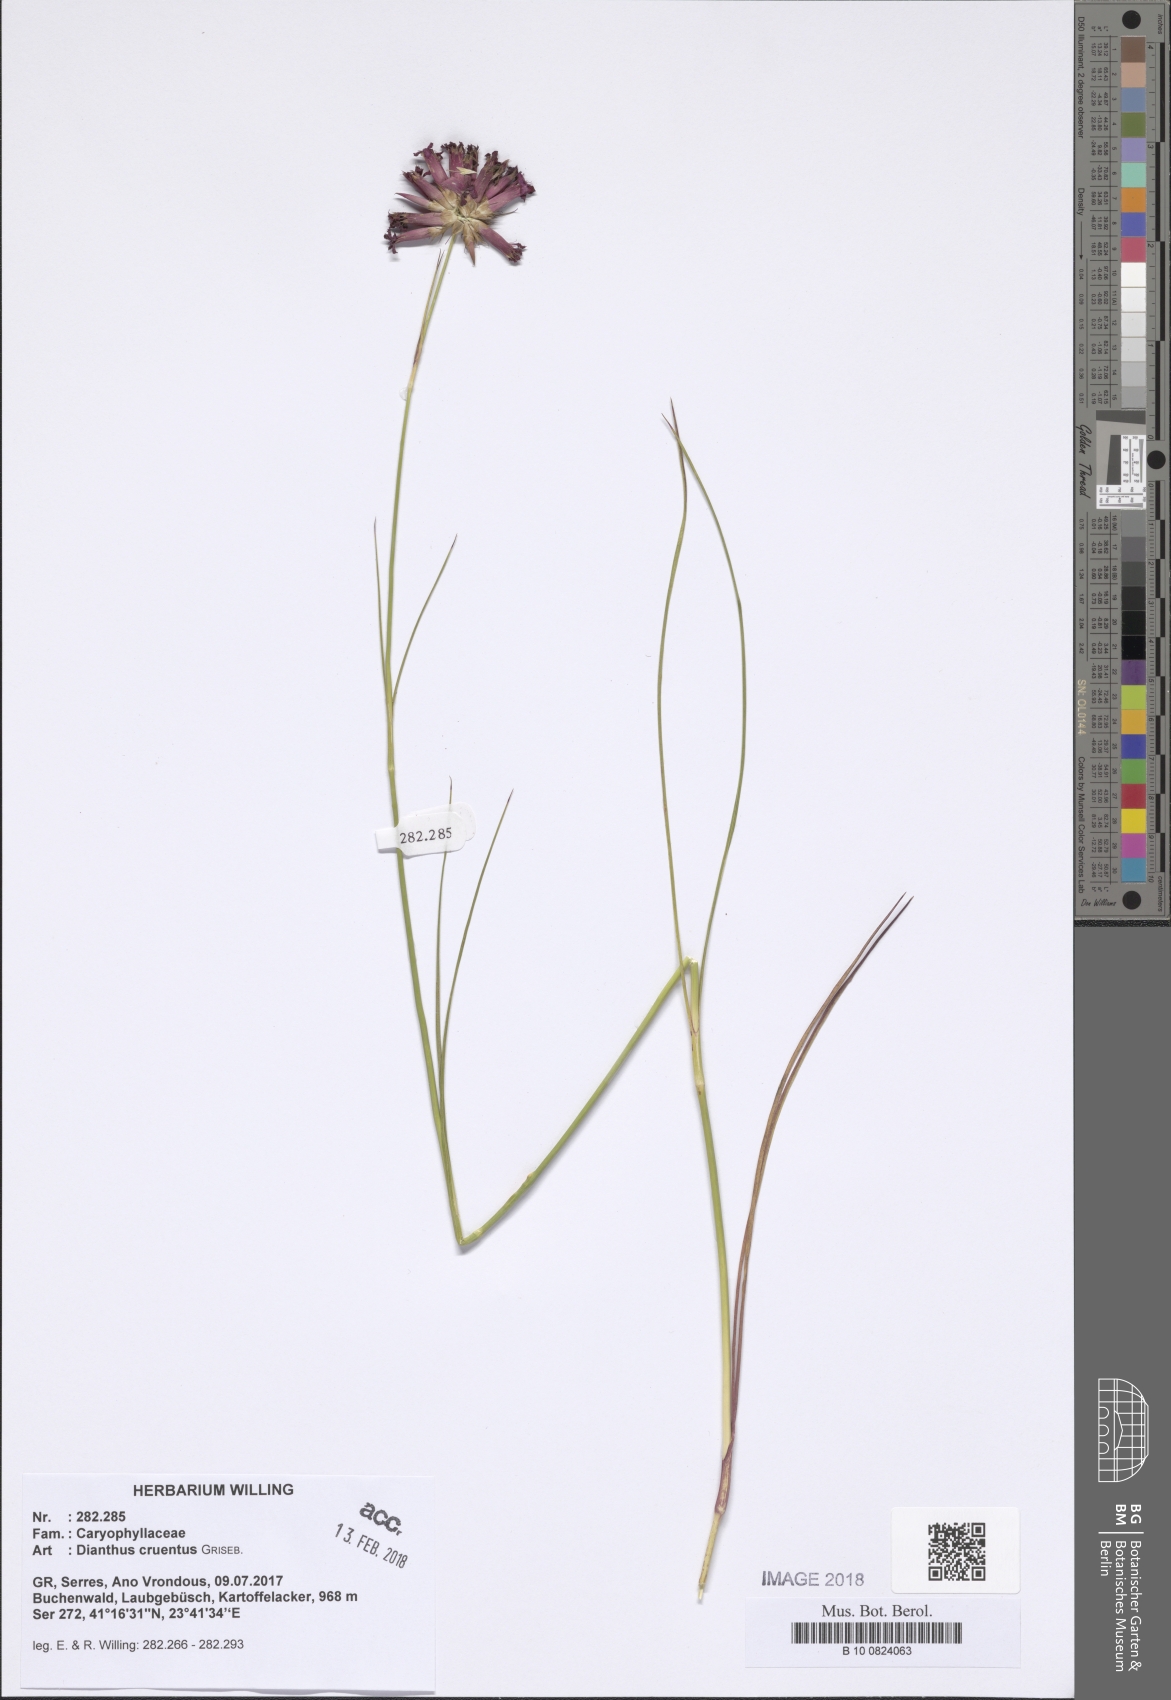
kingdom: Plantae
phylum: Tracheophyta
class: Magnoliopsida
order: Caryophyllales
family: Caryophyllaceae
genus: Dianthus
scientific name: Dianthus cruentus
